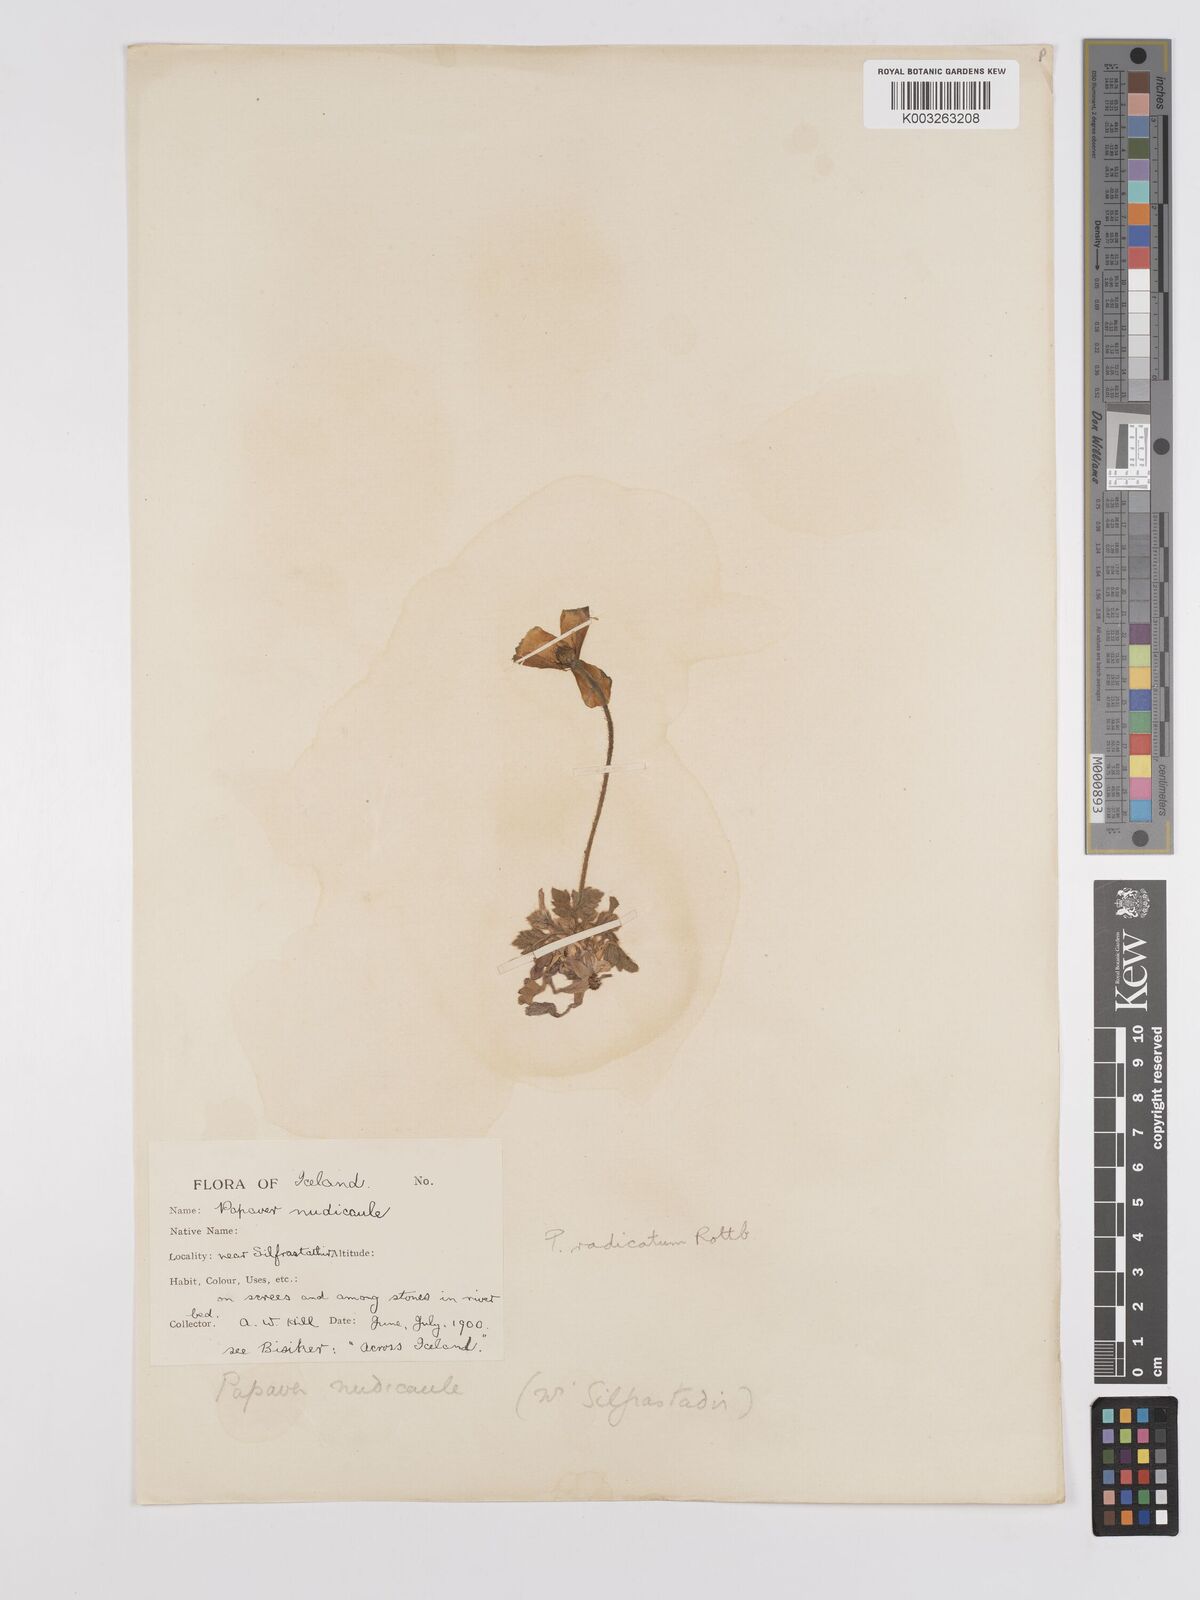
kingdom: Plantae
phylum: Tracheophyta
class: Magnoliopsida
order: Ranunculales
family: Papaveraceae
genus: Papaver
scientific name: Papaver radicatum
